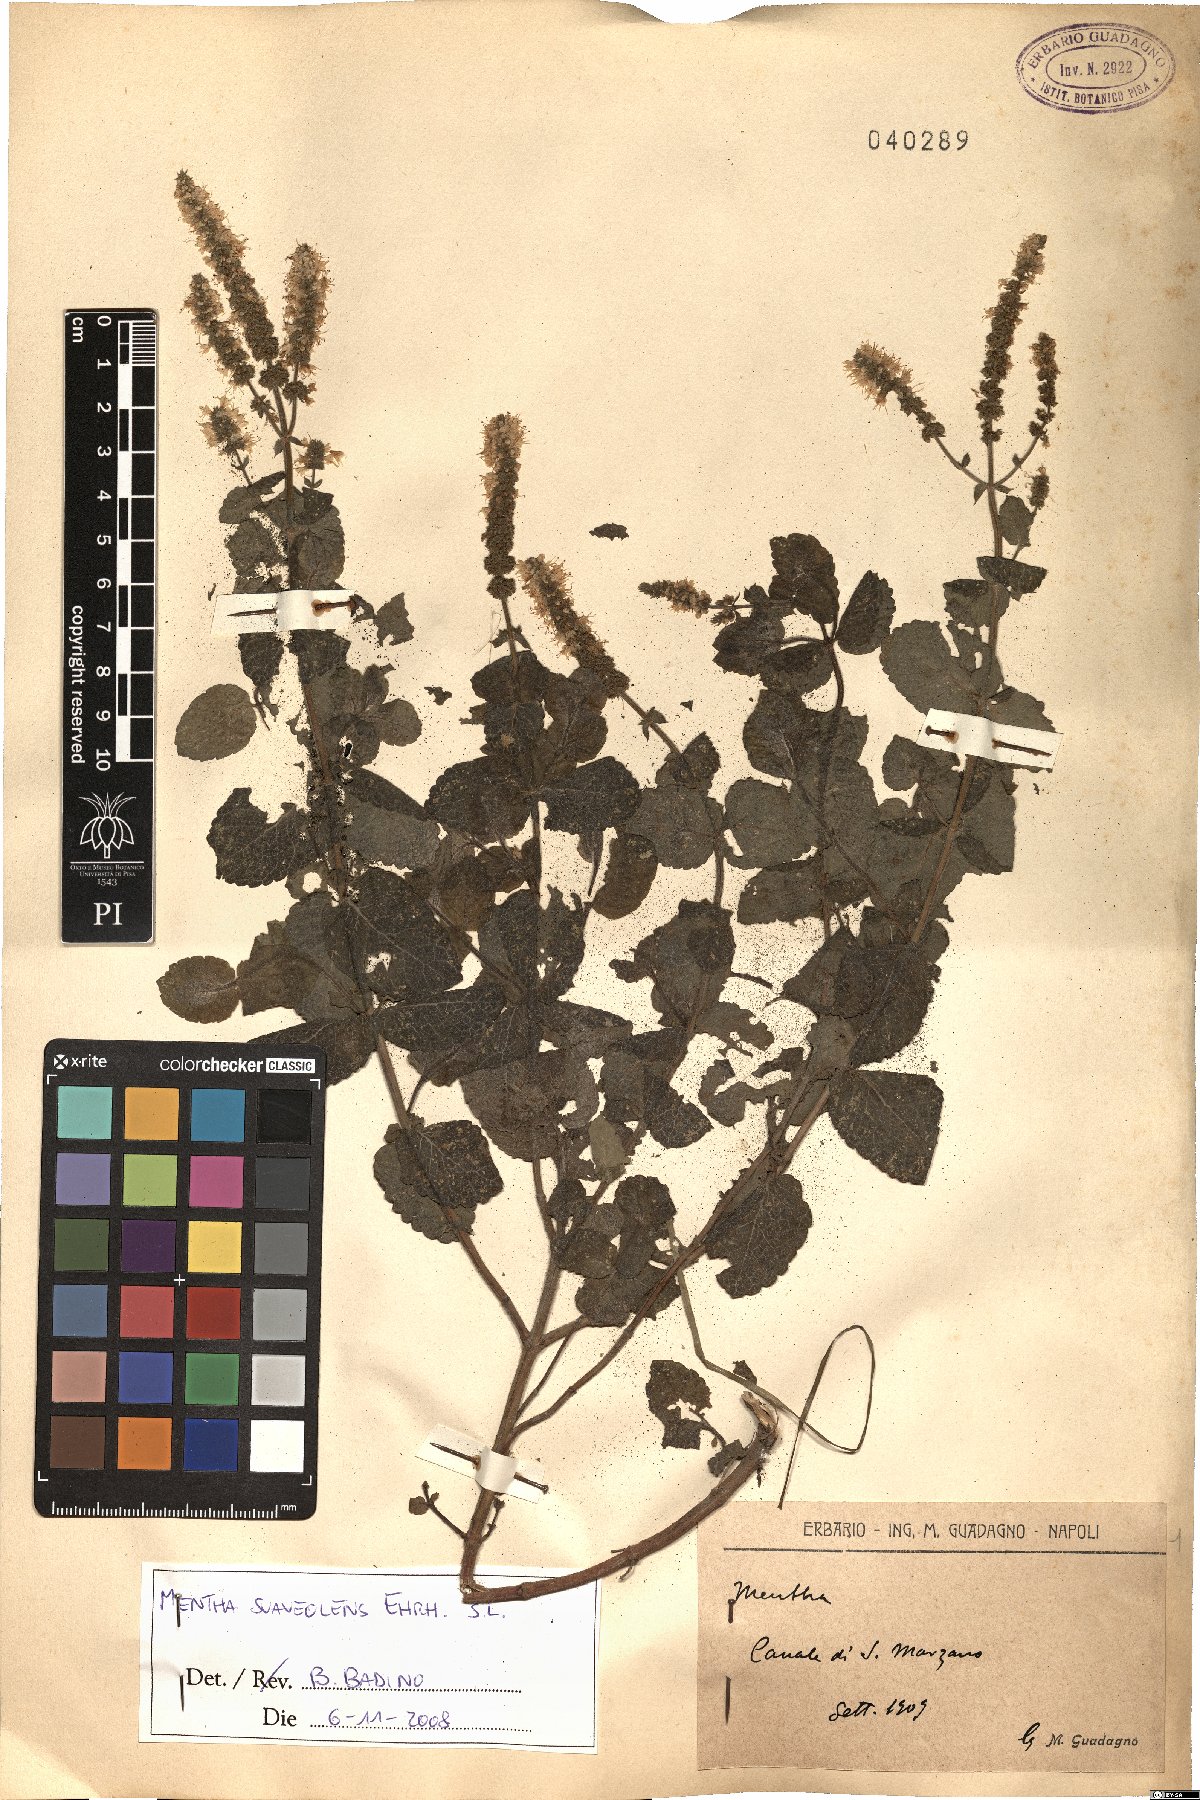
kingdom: Plantae
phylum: Tracheophyta
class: Magnoliopsida
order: Lamiales
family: Lamiaceae
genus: Mentha
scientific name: Mentha suaveolens
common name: Apple mint
